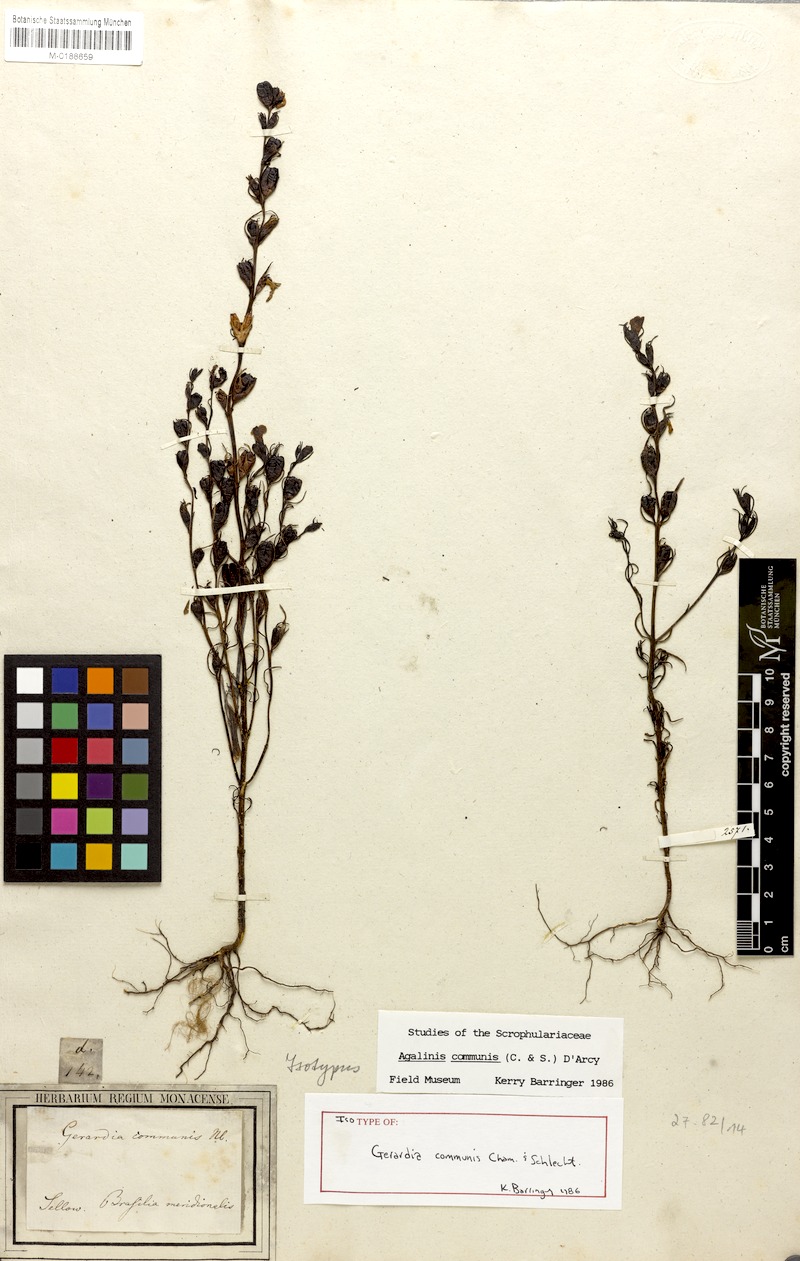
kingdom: Plantae
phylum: Tracheophyta
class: Magnoliopsida
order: Lamiales
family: Orobanchaceae
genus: Agalinis
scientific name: Agalinis communis
